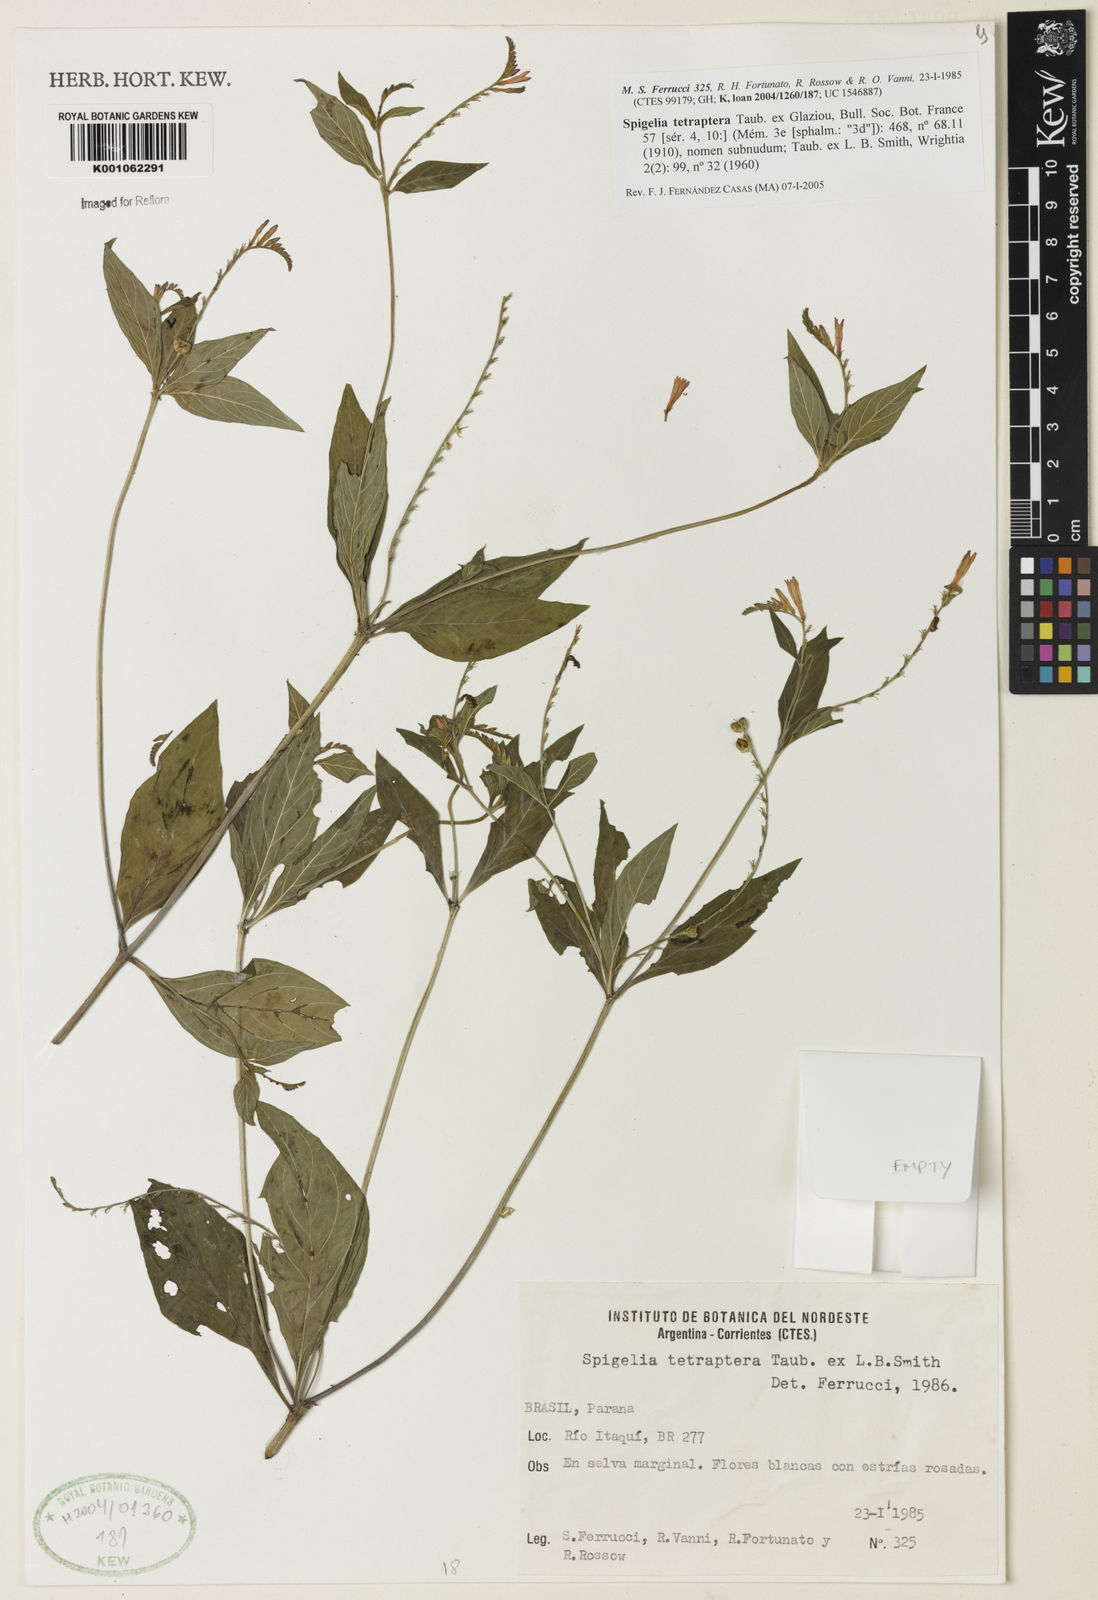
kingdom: Plantae
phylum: Tracheophyta
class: Magnoliopsida
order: Gentianales
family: Loganiaceae
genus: Spigelia
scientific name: Spigelia tetraptera
